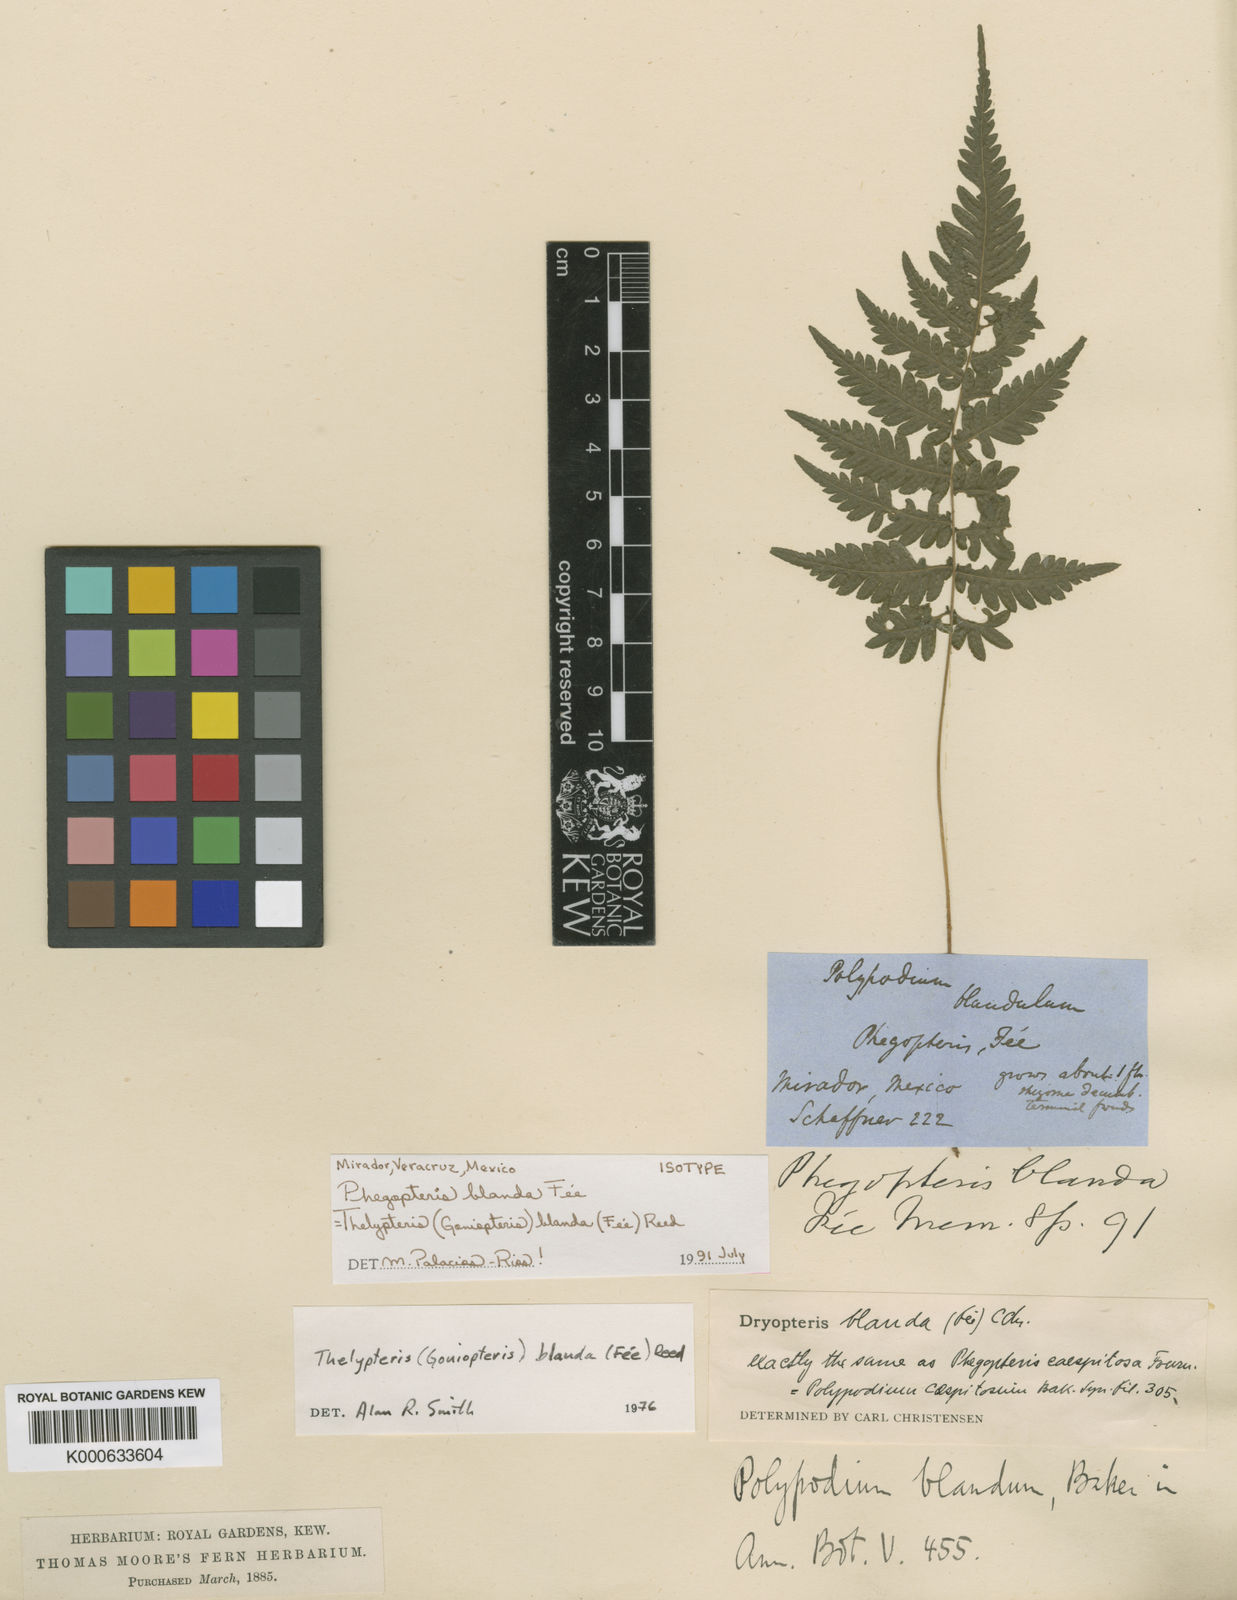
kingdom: Plantae
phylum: Tracheophyta
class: Polypodiopsida
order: Polypodiales
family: Thelypteridaceae
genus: Goniopteris
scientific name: Goniopteris blanda
